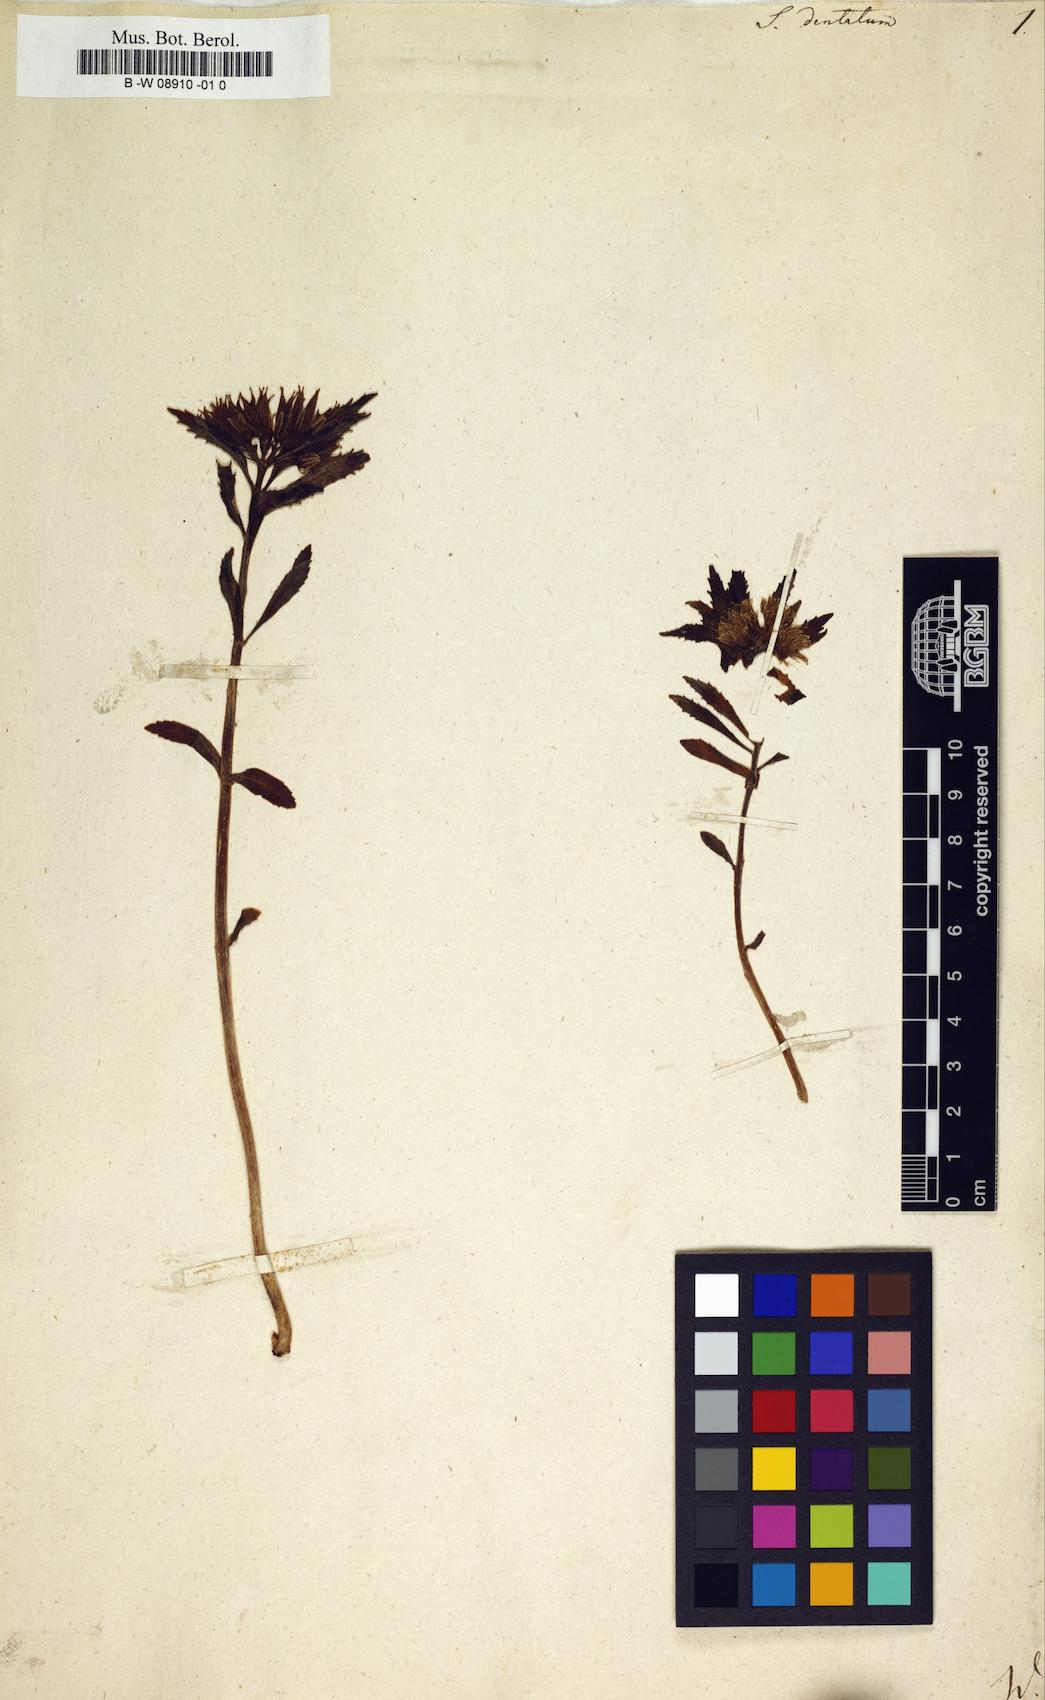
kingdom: Plantae
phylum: Tracheophyta
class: Magnoliopsida
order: Saxifragales
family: Crassulaceae
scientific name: Crassulaceae
